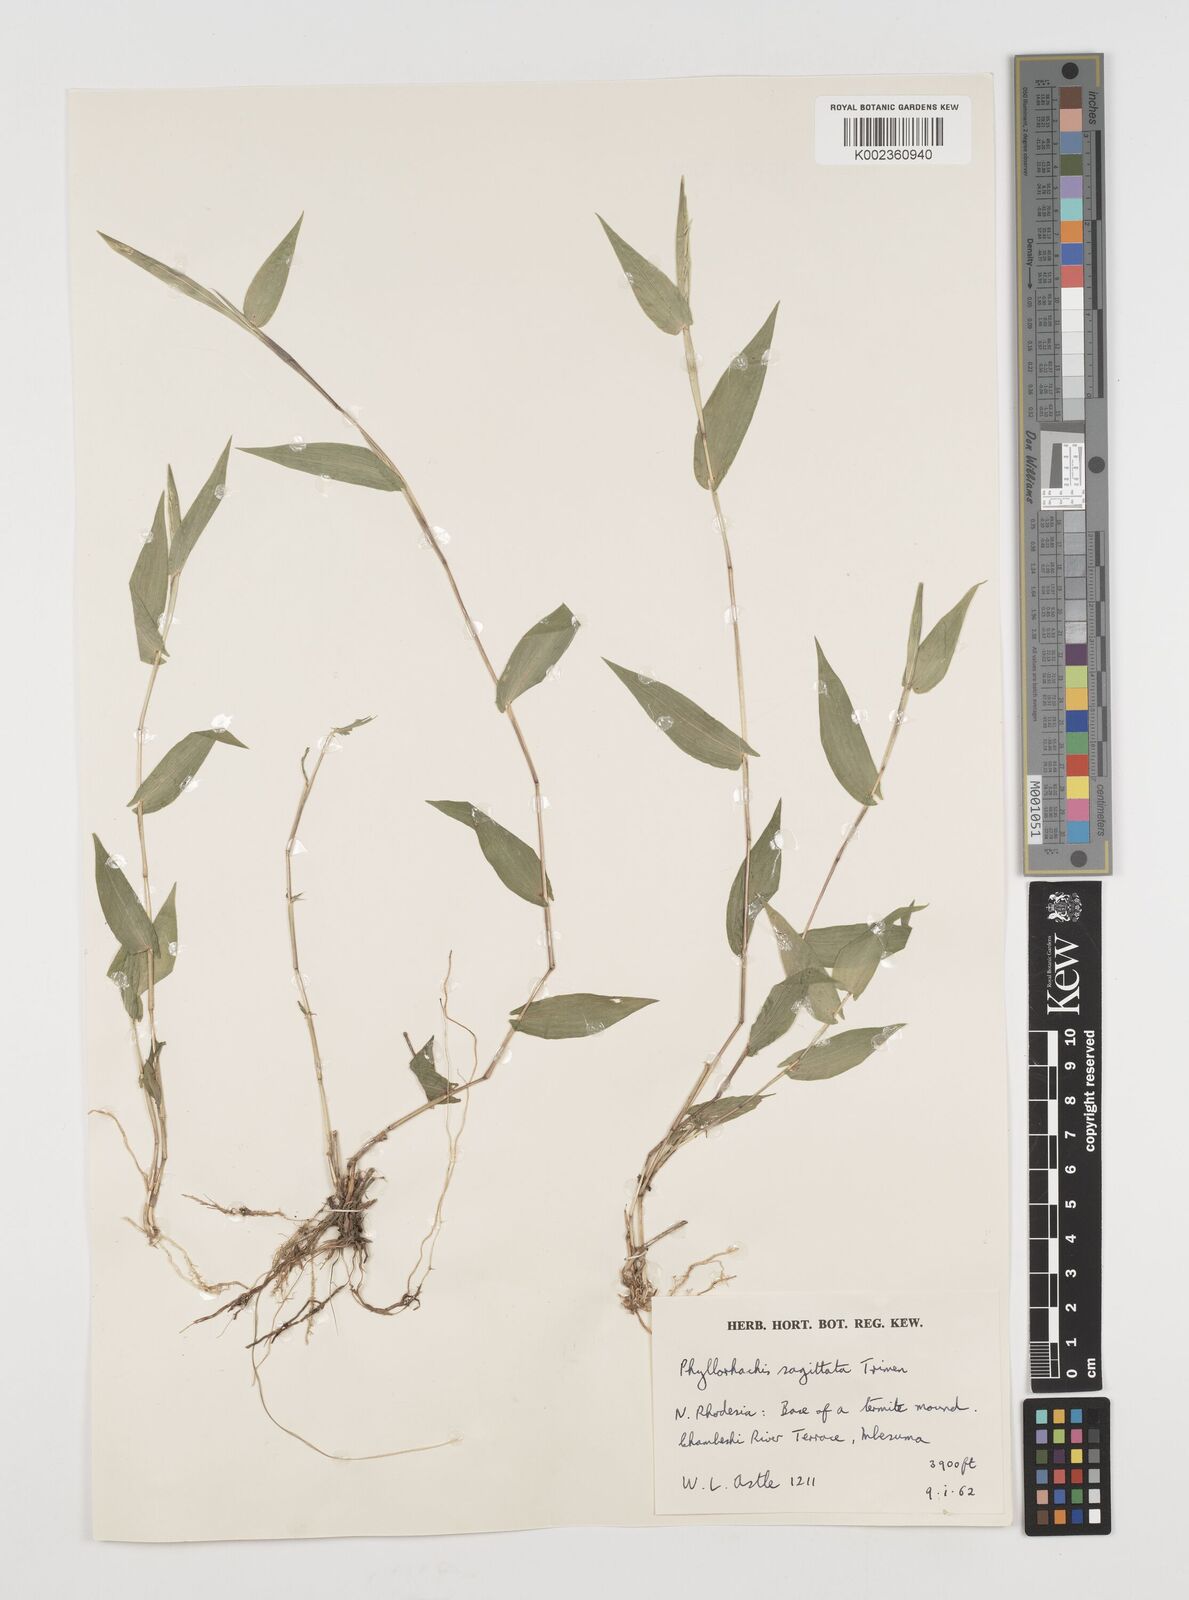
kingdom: Plantae
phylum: Tracheophyta
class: Liliopsida
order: Poales
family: Poaceae
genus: Phyllorachis
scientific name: Phyllorachis sagittata
